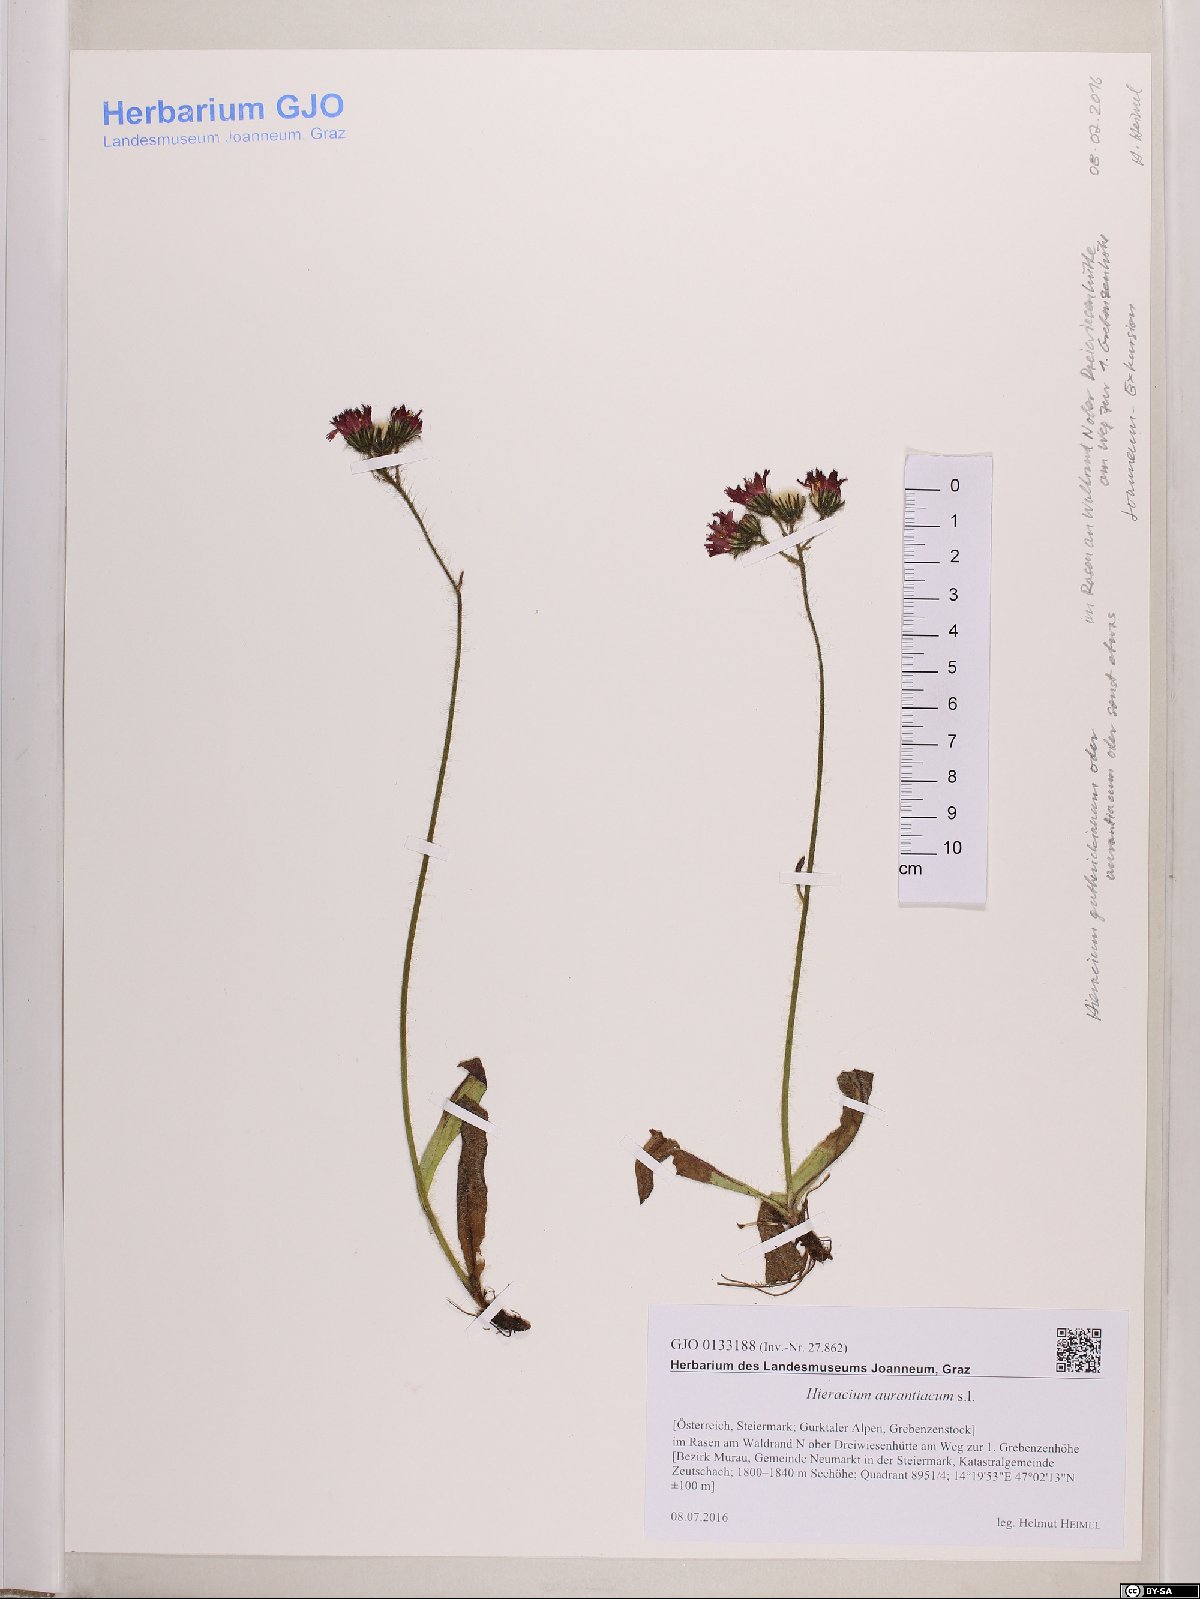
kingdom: Plantae
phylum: Tracheophyta
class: Magnoliopsida
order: Asterales
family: Asteraceae
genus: Pilosella
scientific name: Pilosella aurantiaca
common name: Fox-and-cubs
